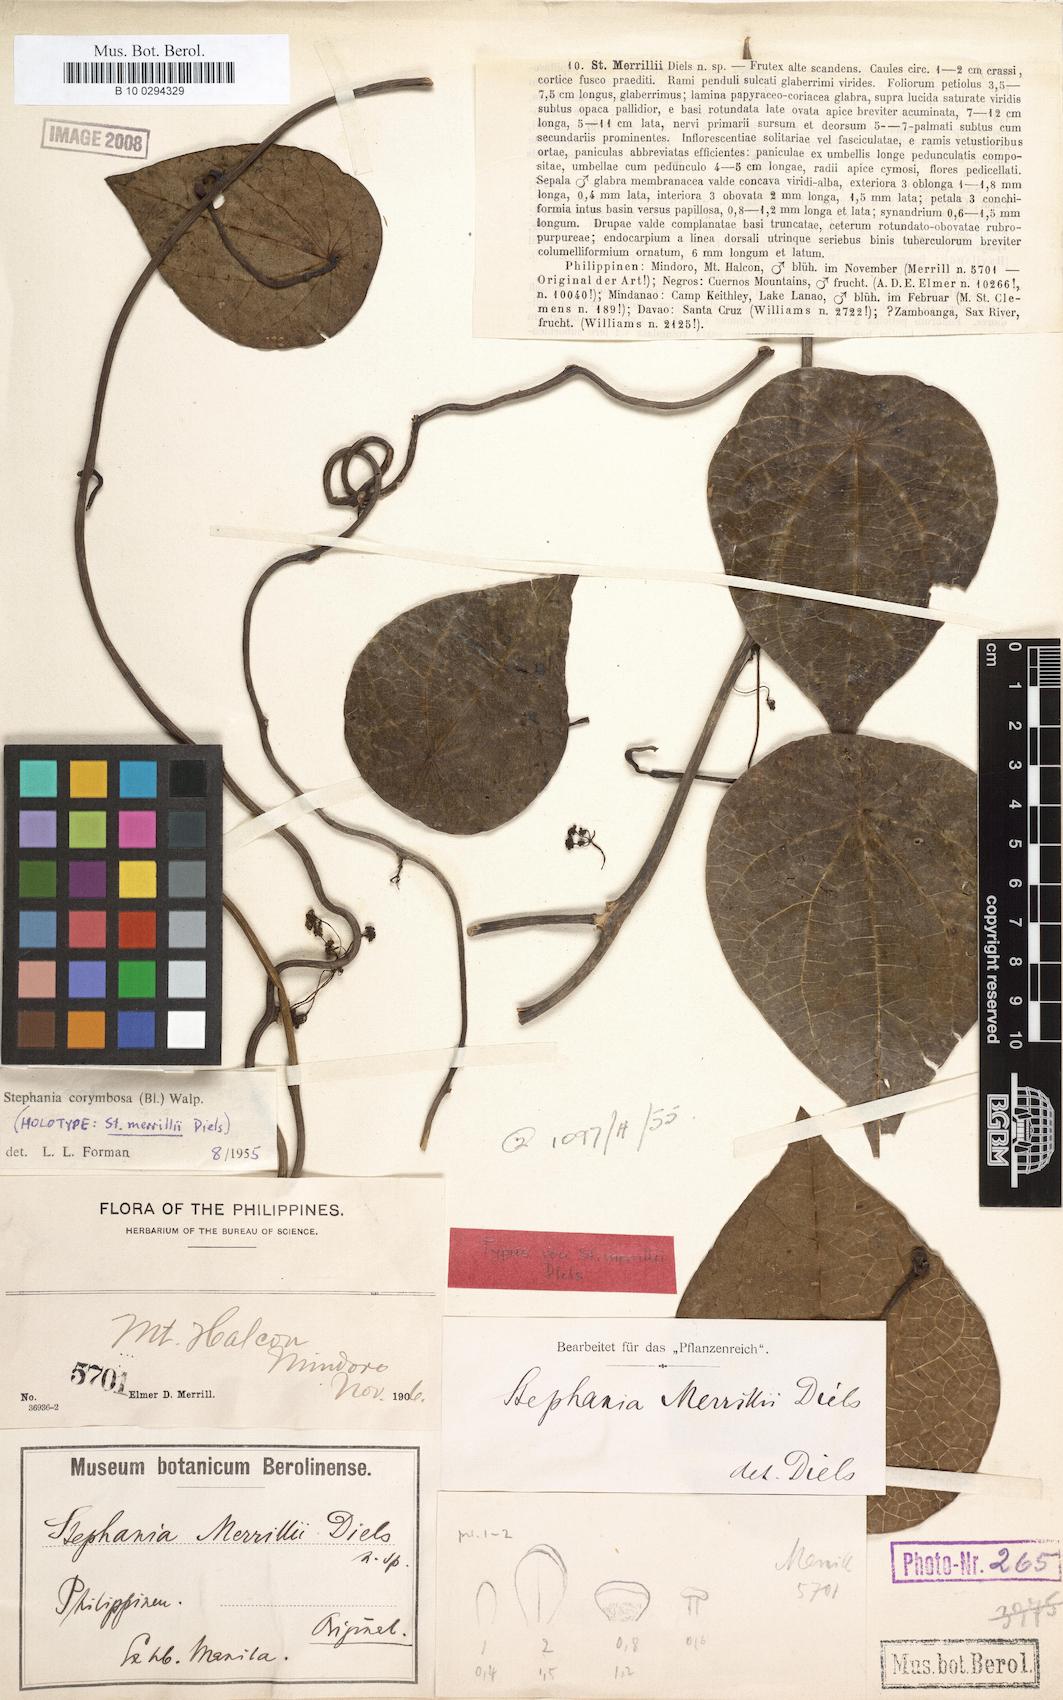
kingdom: Plantae
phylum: Tracheophyta
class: Magnoliopsida
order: Ranunculales
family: Menispermaceae
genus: Stephania
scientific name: Stephania corymbosa
